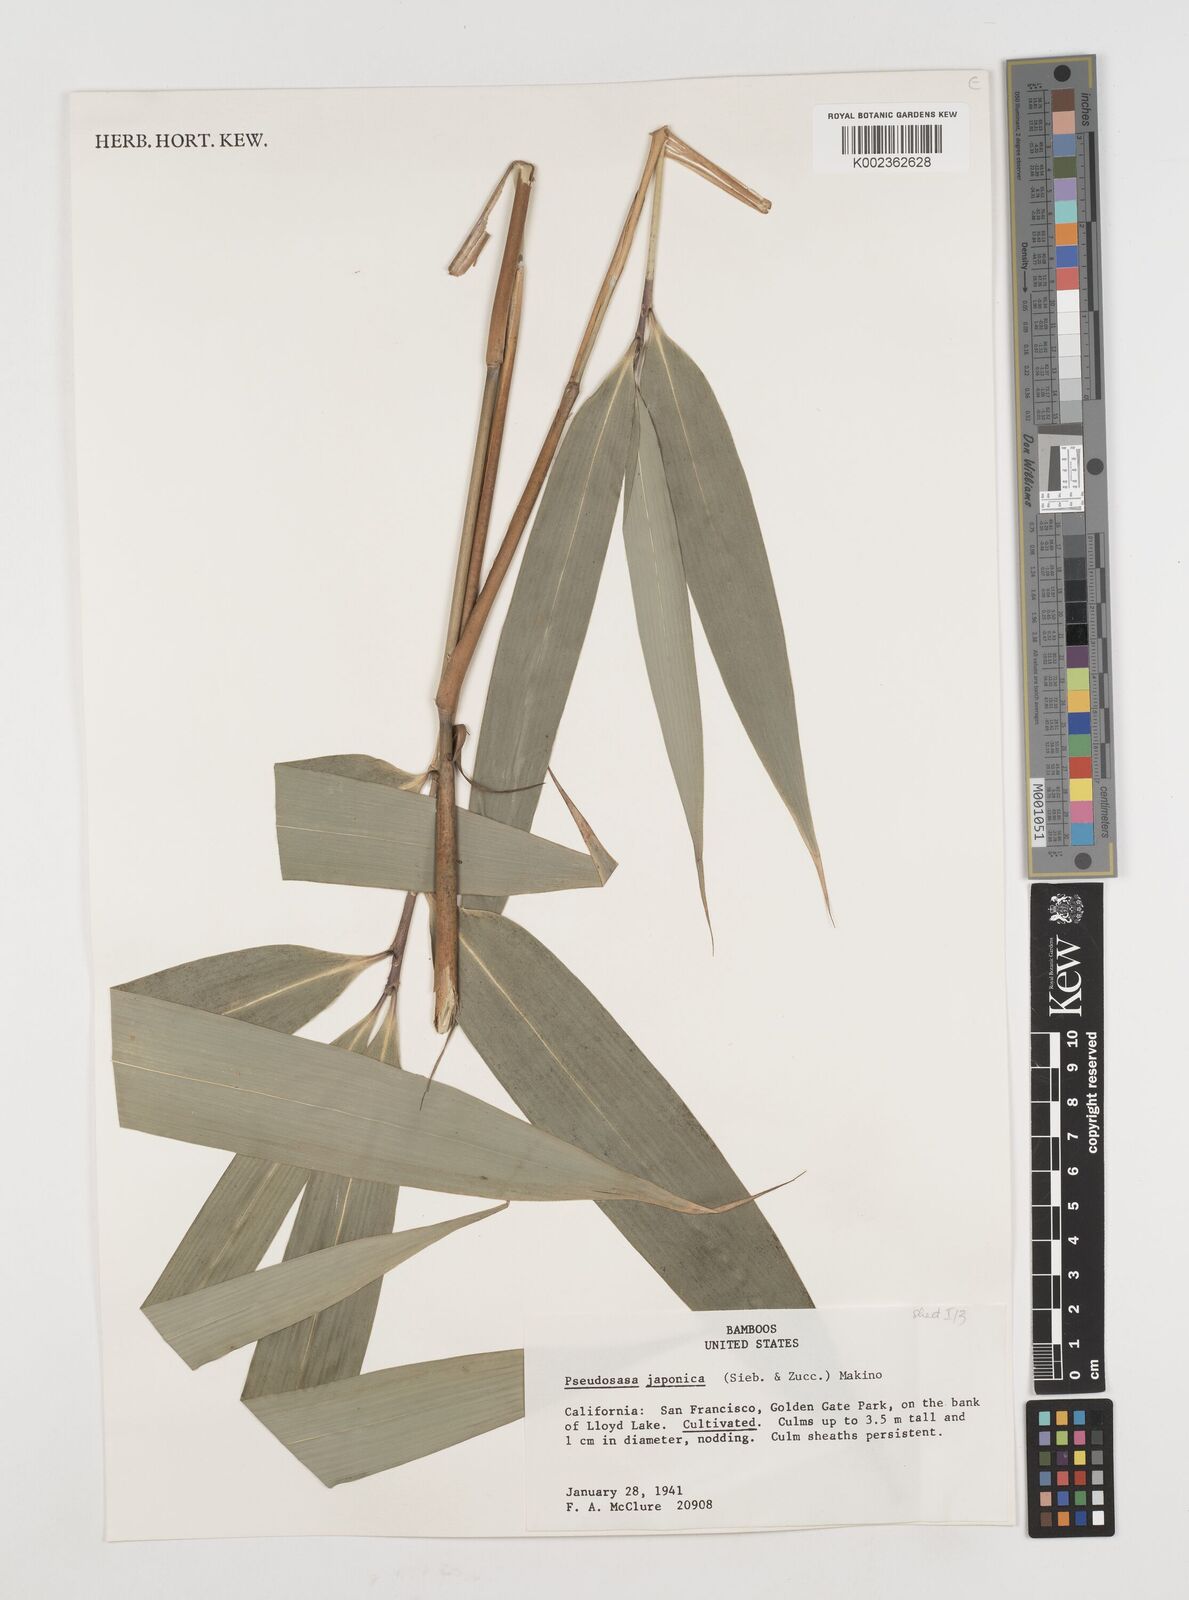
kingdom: Plantae
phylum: Tracheophyta
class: Liliopsida
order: Poales
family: Poaceae
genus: Pseudosasa
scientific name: Pseudosasa japonica
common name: Arrow bamboo
